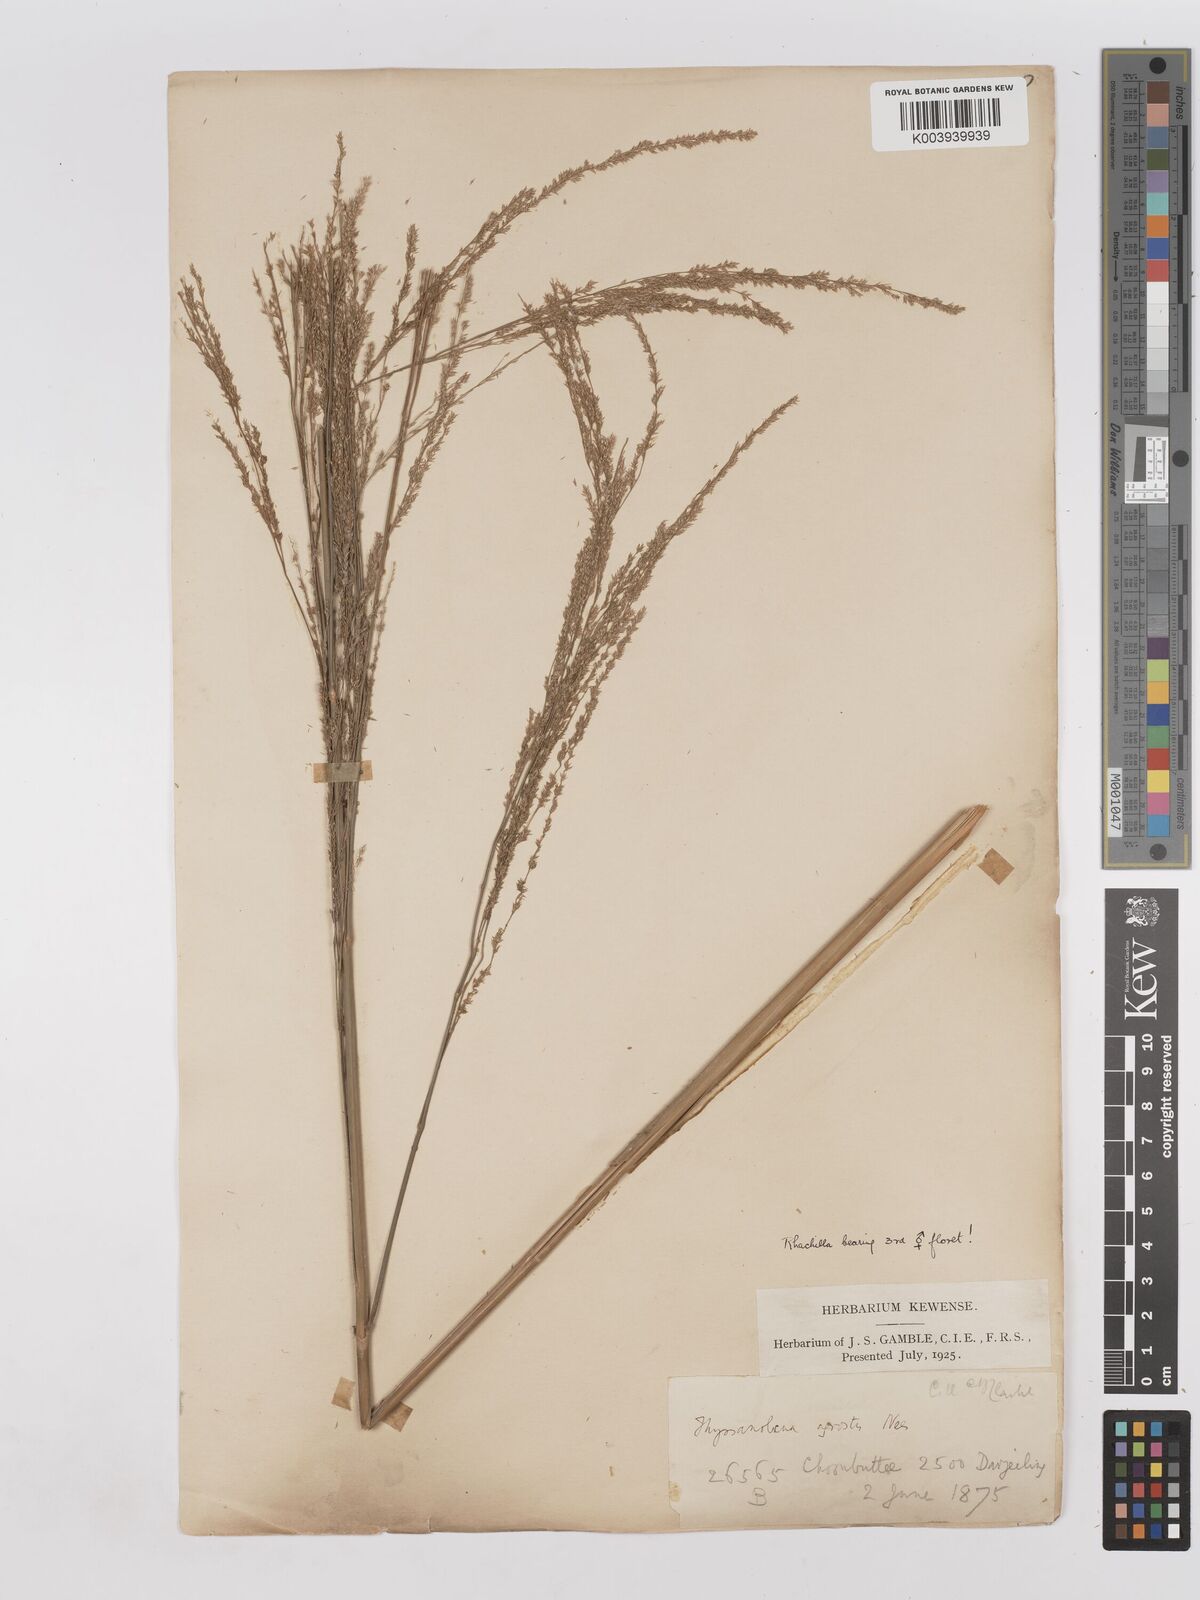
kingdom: Plantae
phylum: Tracheophyta
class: Liliopsida
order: Poales
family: Poaceae
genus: Thysanolaena
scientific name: Thysanolaena latifolia
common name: Tiger grass
